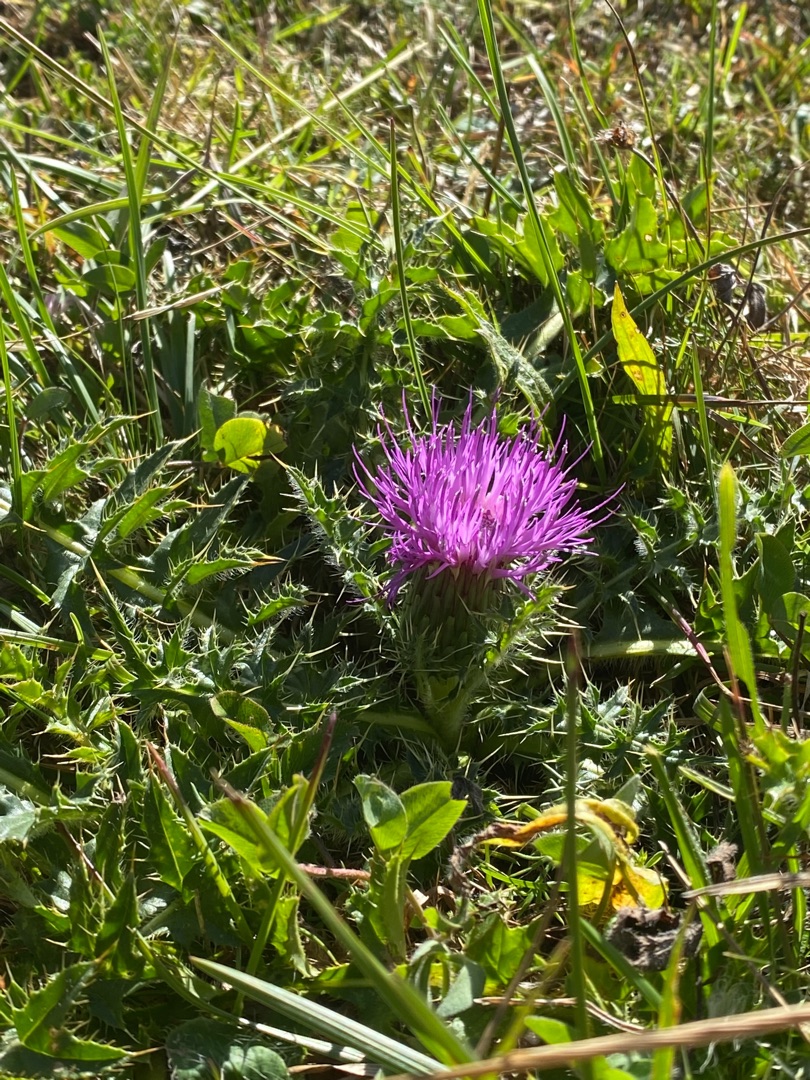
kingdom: Plantae
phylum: Tracheophyta
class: Magnoliopsida
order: Asterales
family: Asteraceae
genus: Cirsium
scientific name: Cirsium acaule
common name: Lav tidsel
